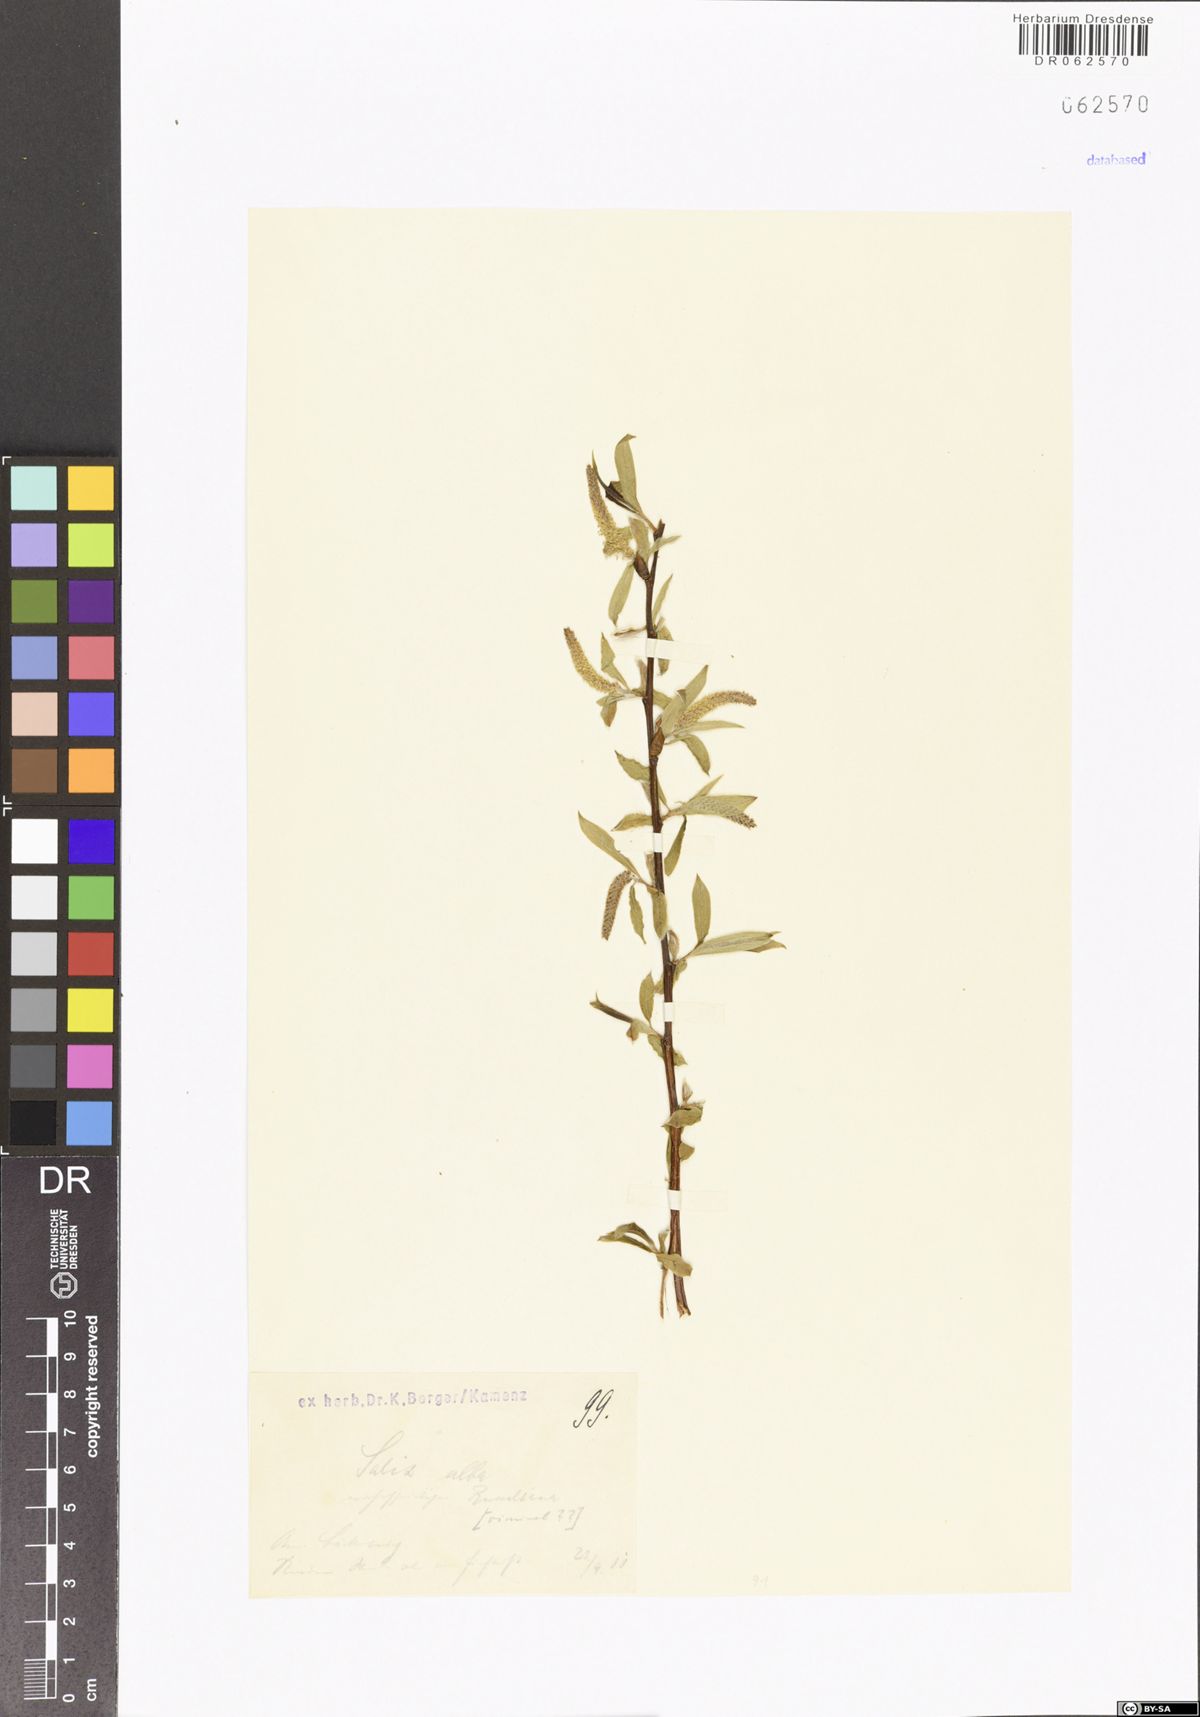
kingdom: Plantae
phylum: Tracheophyta
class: Magnoliopsida
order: Malpighiales
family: Salicaceae
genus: Salix
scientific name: Salix alba
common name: White willow
